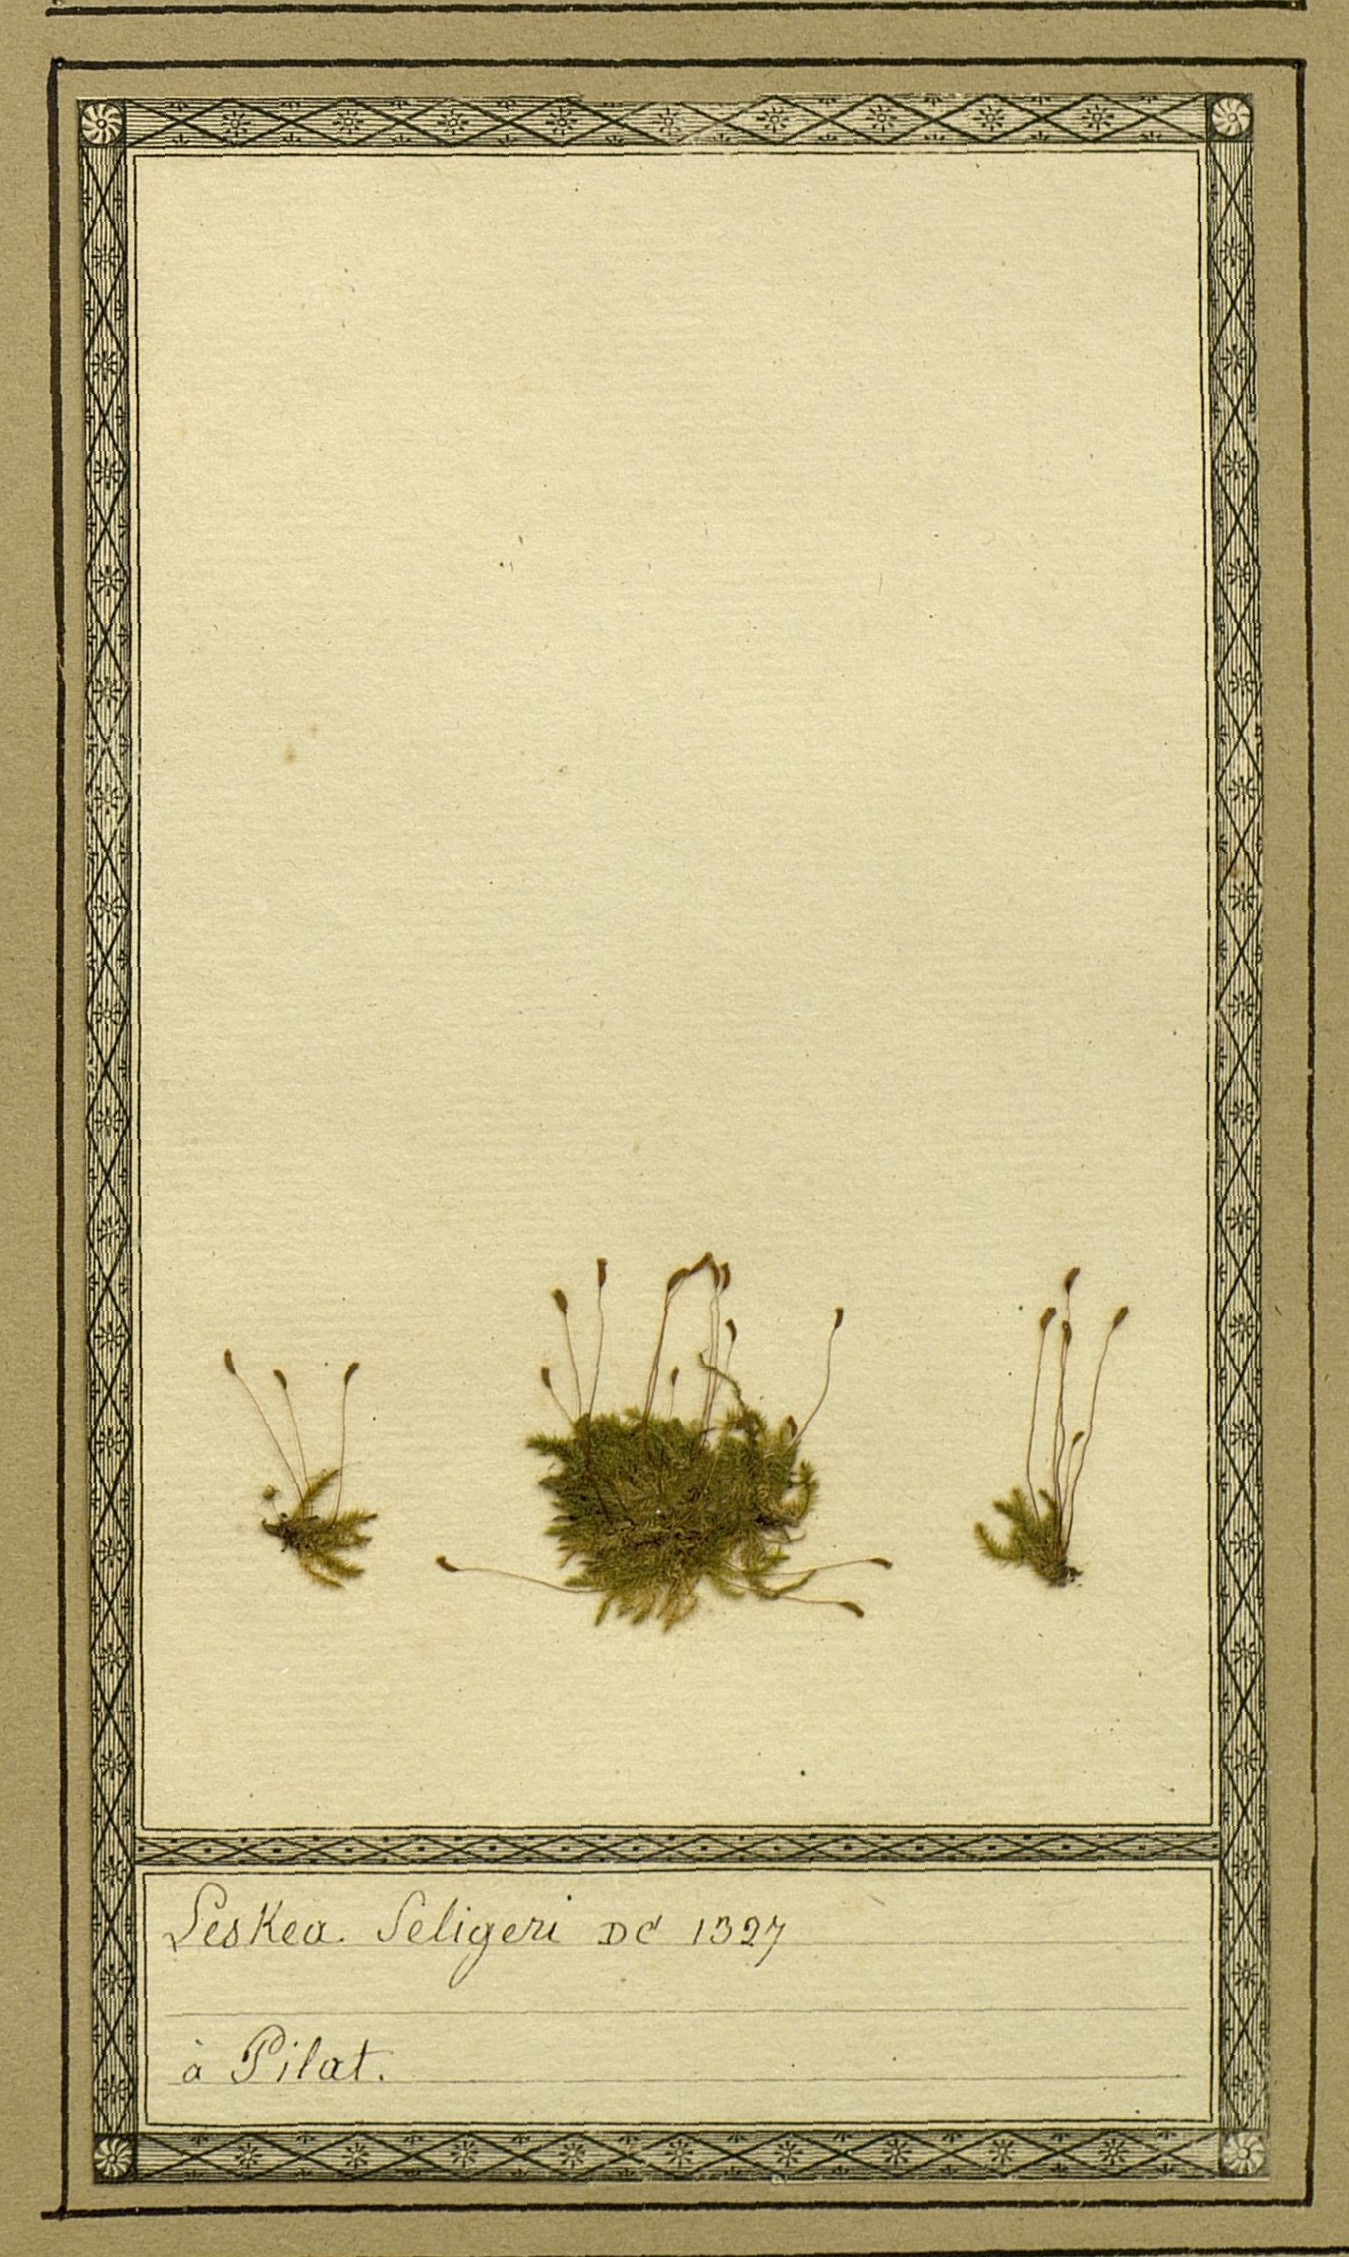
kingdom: Plantae
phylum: Bryophyta
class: Bryopsida
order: Hypnales
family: Plagiotheciaceae
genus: Herzogiella
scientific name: Herzogiella seligeri
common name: Silesian feather-moss
